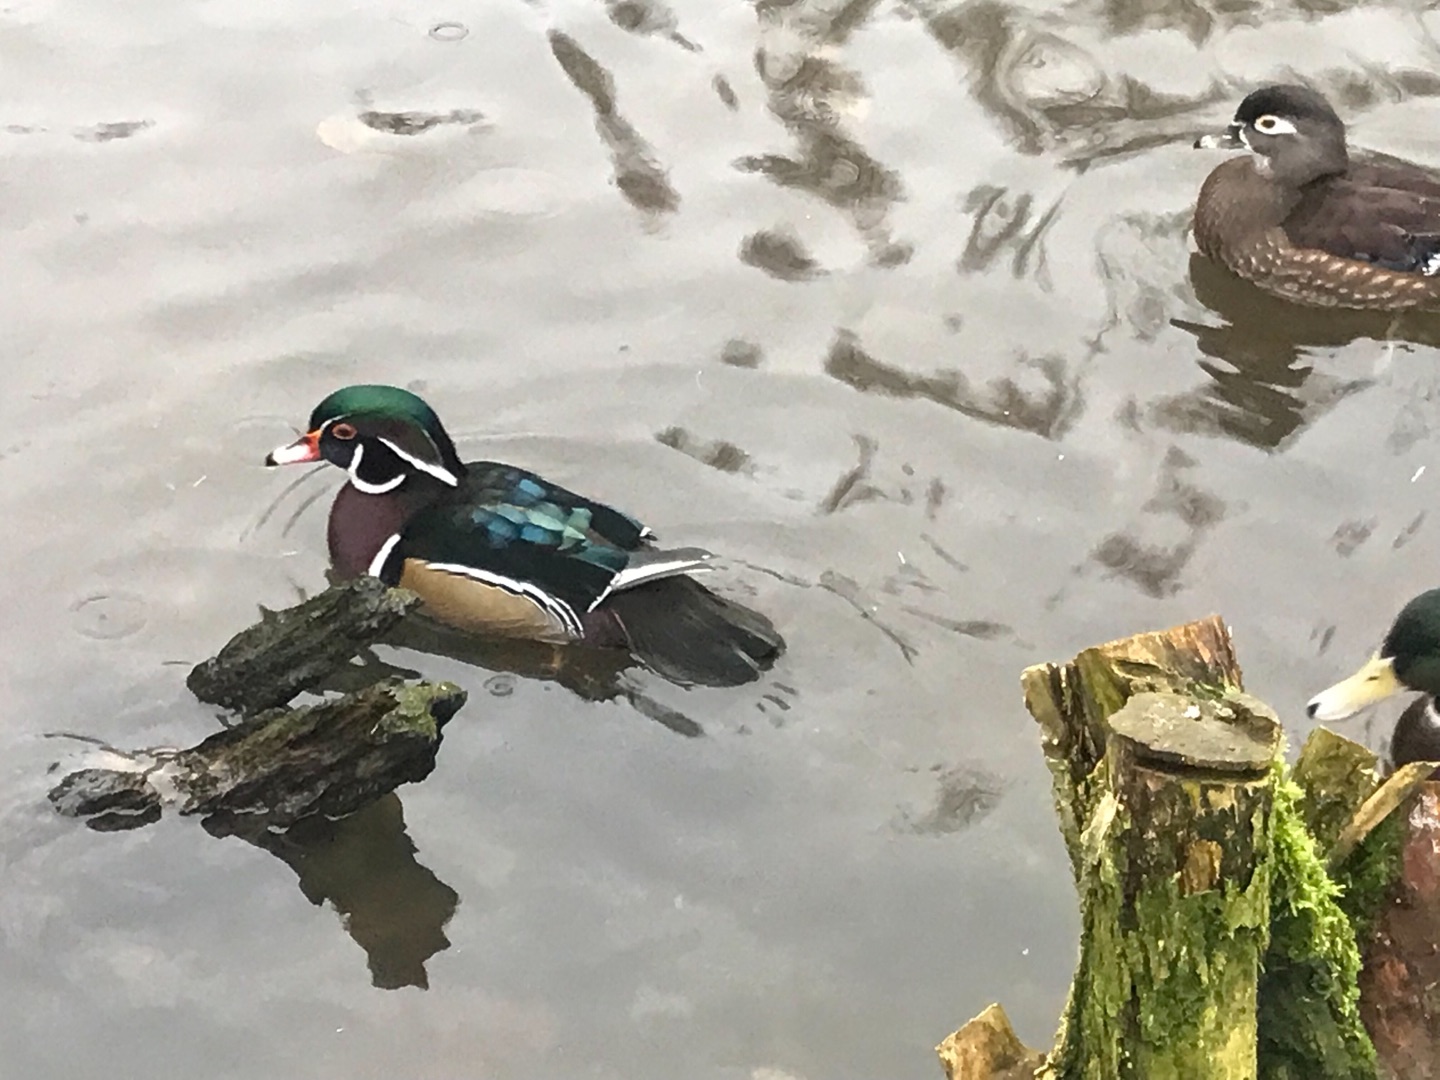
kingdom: Animalia
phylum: Chordata
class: Aves
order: Anseriformes
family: Anatidae
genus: Aix
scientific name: Aix sponsa
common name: Brudeand
